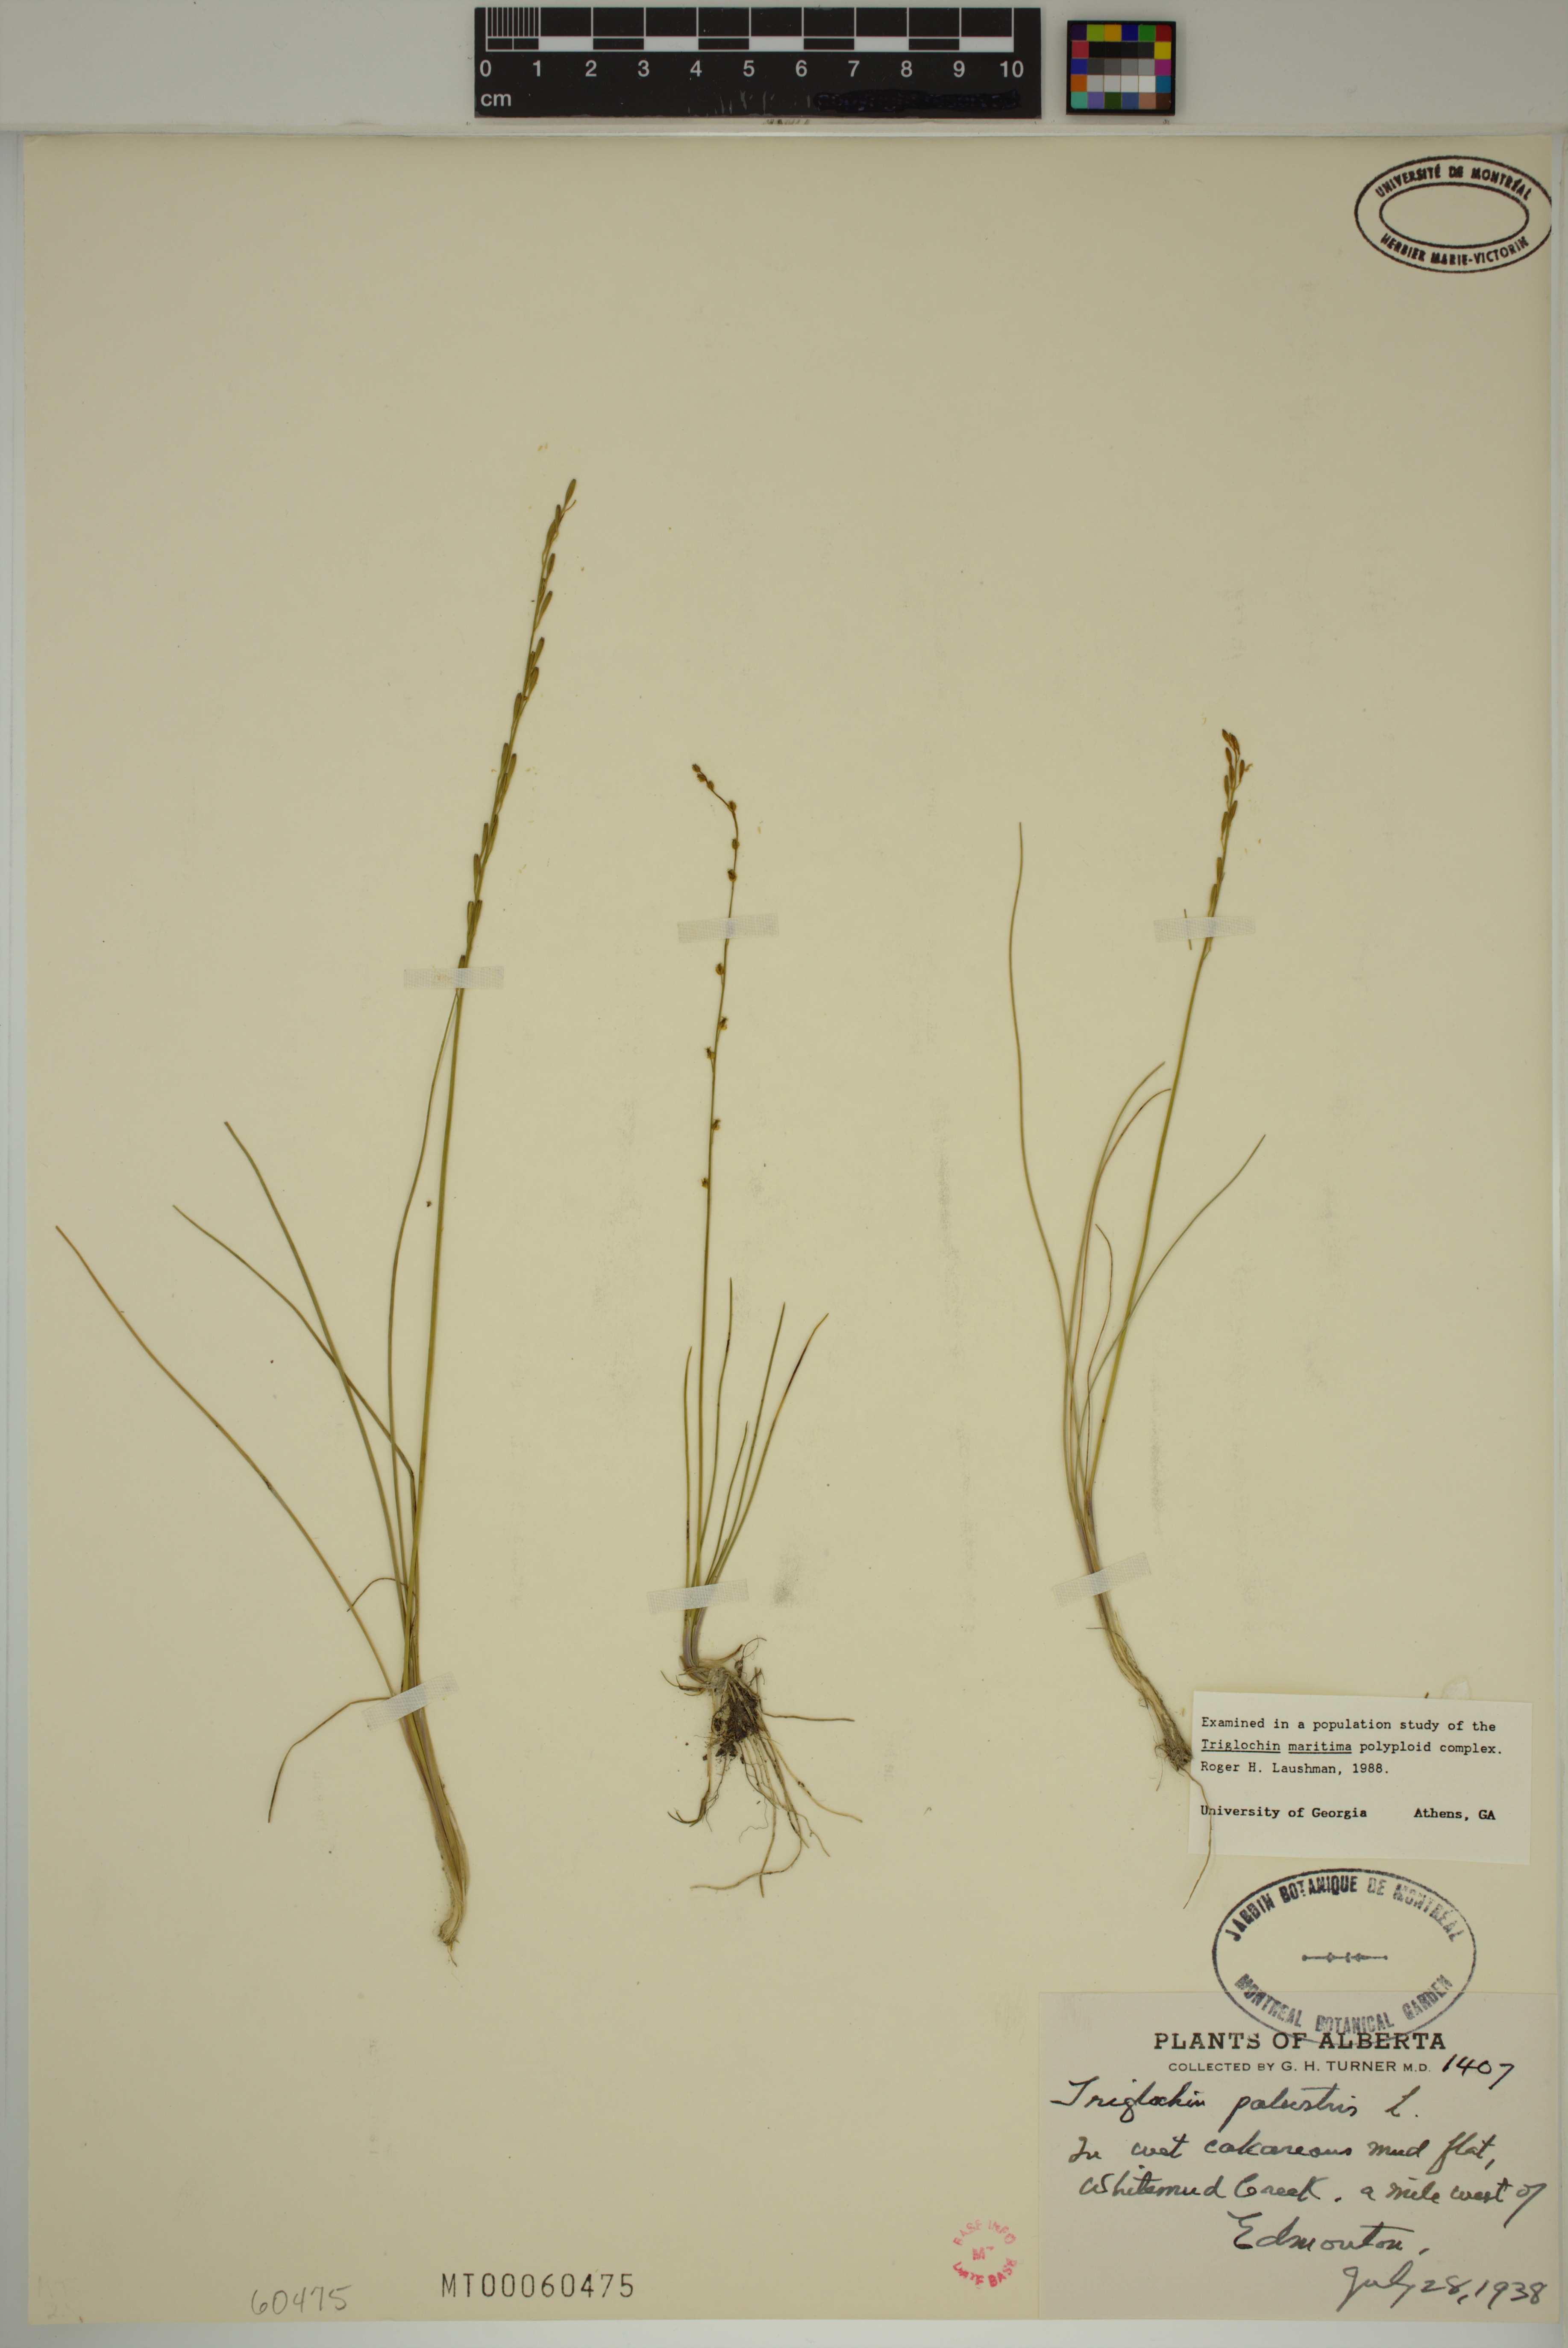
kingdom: Plantae
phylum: Tracheophyta
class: Liliopsida
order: Alismatales
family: Juncaginaceae
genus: Triglochin
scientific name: Triglochin palustris
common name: Marsh arrowgrass
